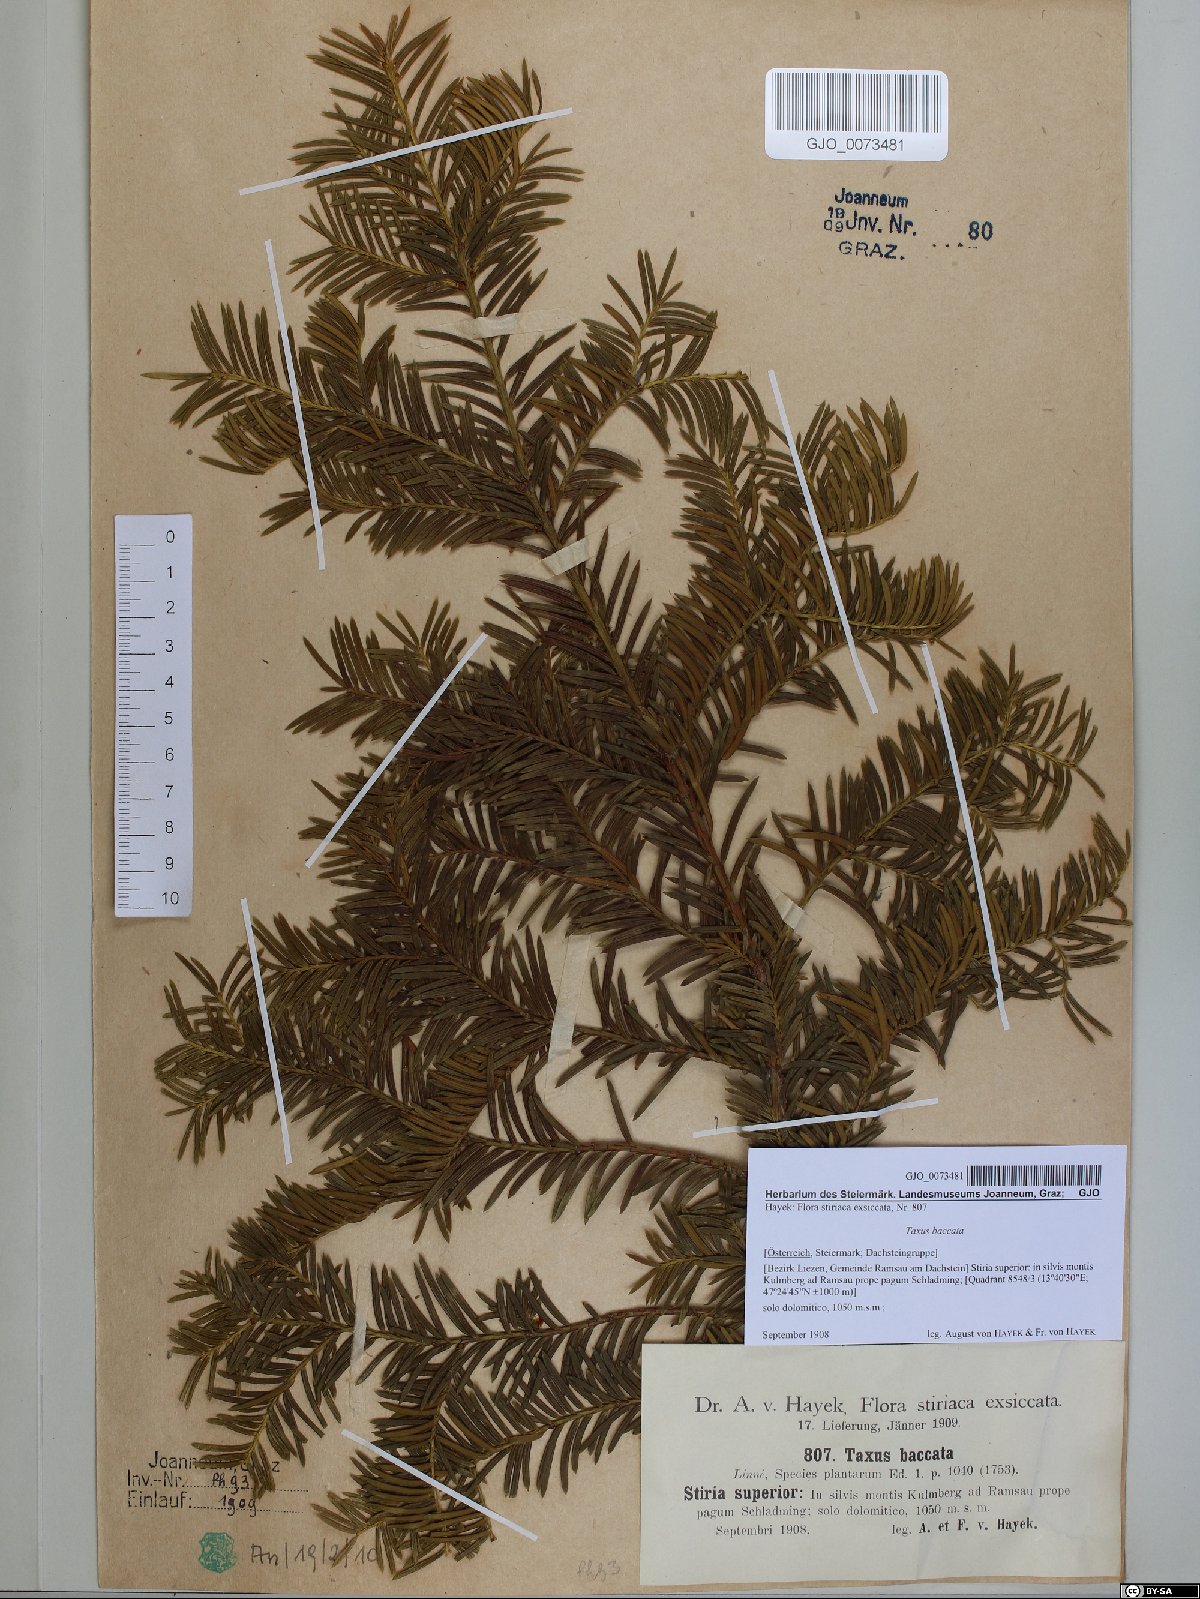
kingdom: Plantae
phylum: Tracheophyta
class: Pinopsida
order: Pinales
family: Taxaceae
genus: Taxus
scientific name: Taxus baccata
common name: Yew
